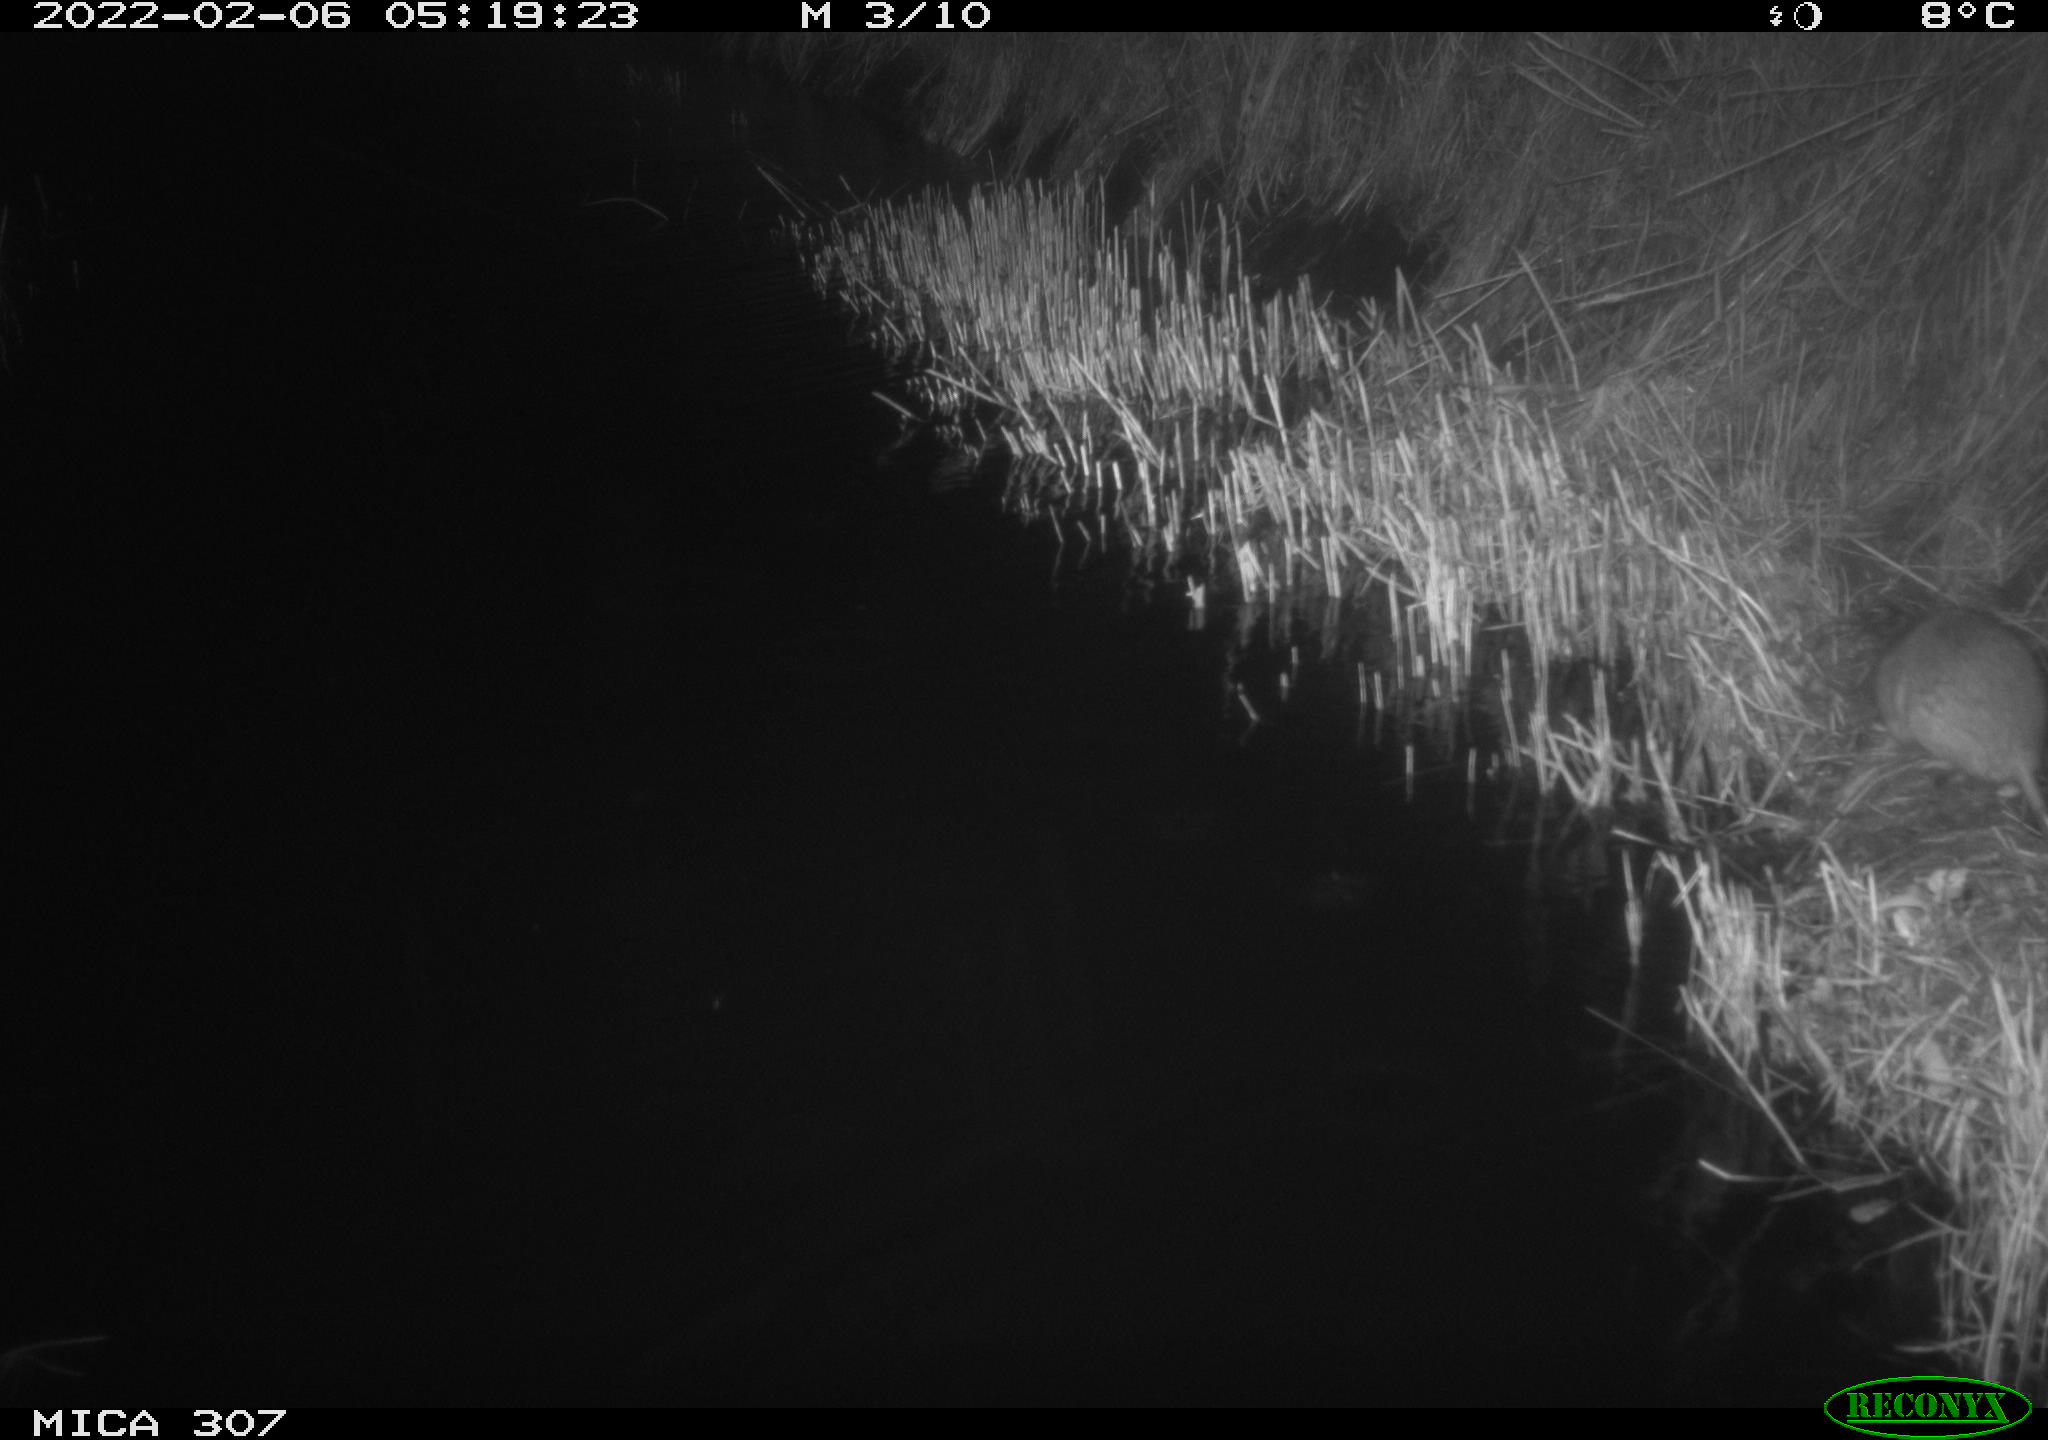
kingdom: Animalia
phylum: Chordata
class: Mammalia
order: Rodentia
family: Muridae
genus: Rattus
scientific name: Rattus norvegicus
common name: Brown rat
